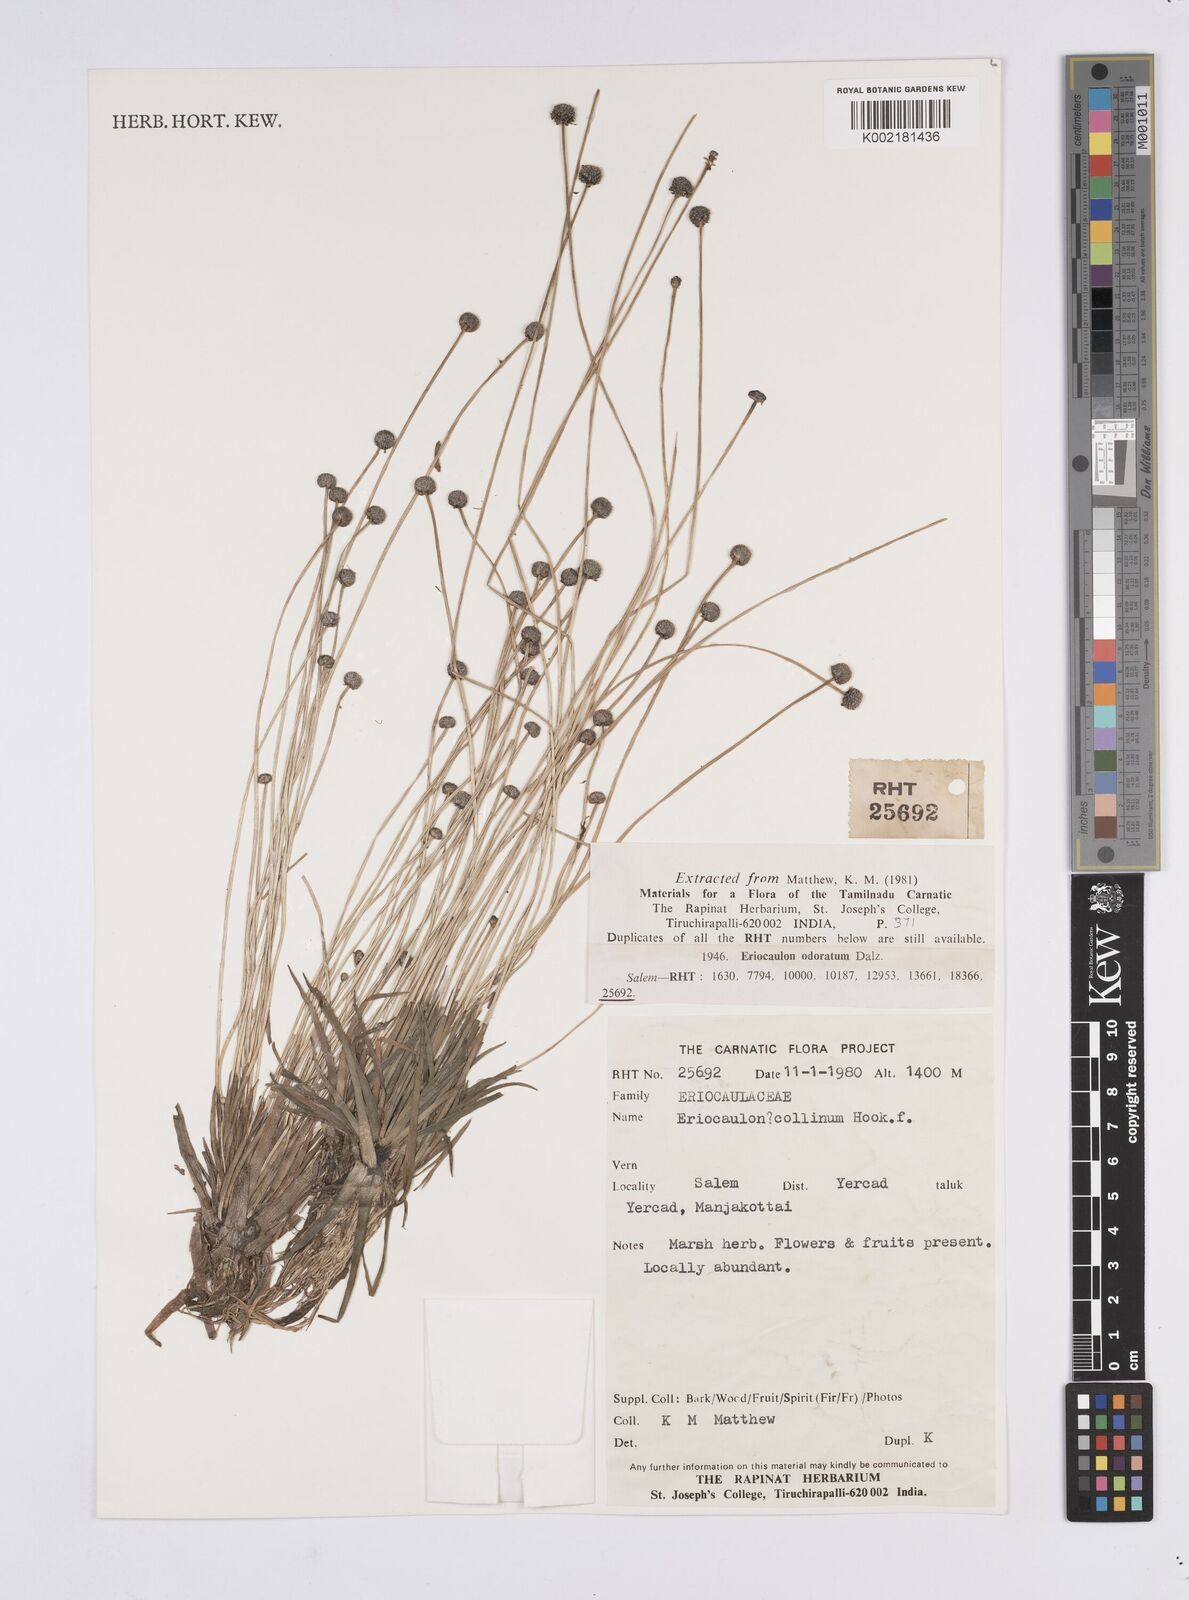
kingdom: Plantae
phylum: Tracheophyta
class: Liliopsida
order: Poales
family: Eriocaulaceae
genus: Eriocaulon
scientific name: Eriocaulon odoratum
